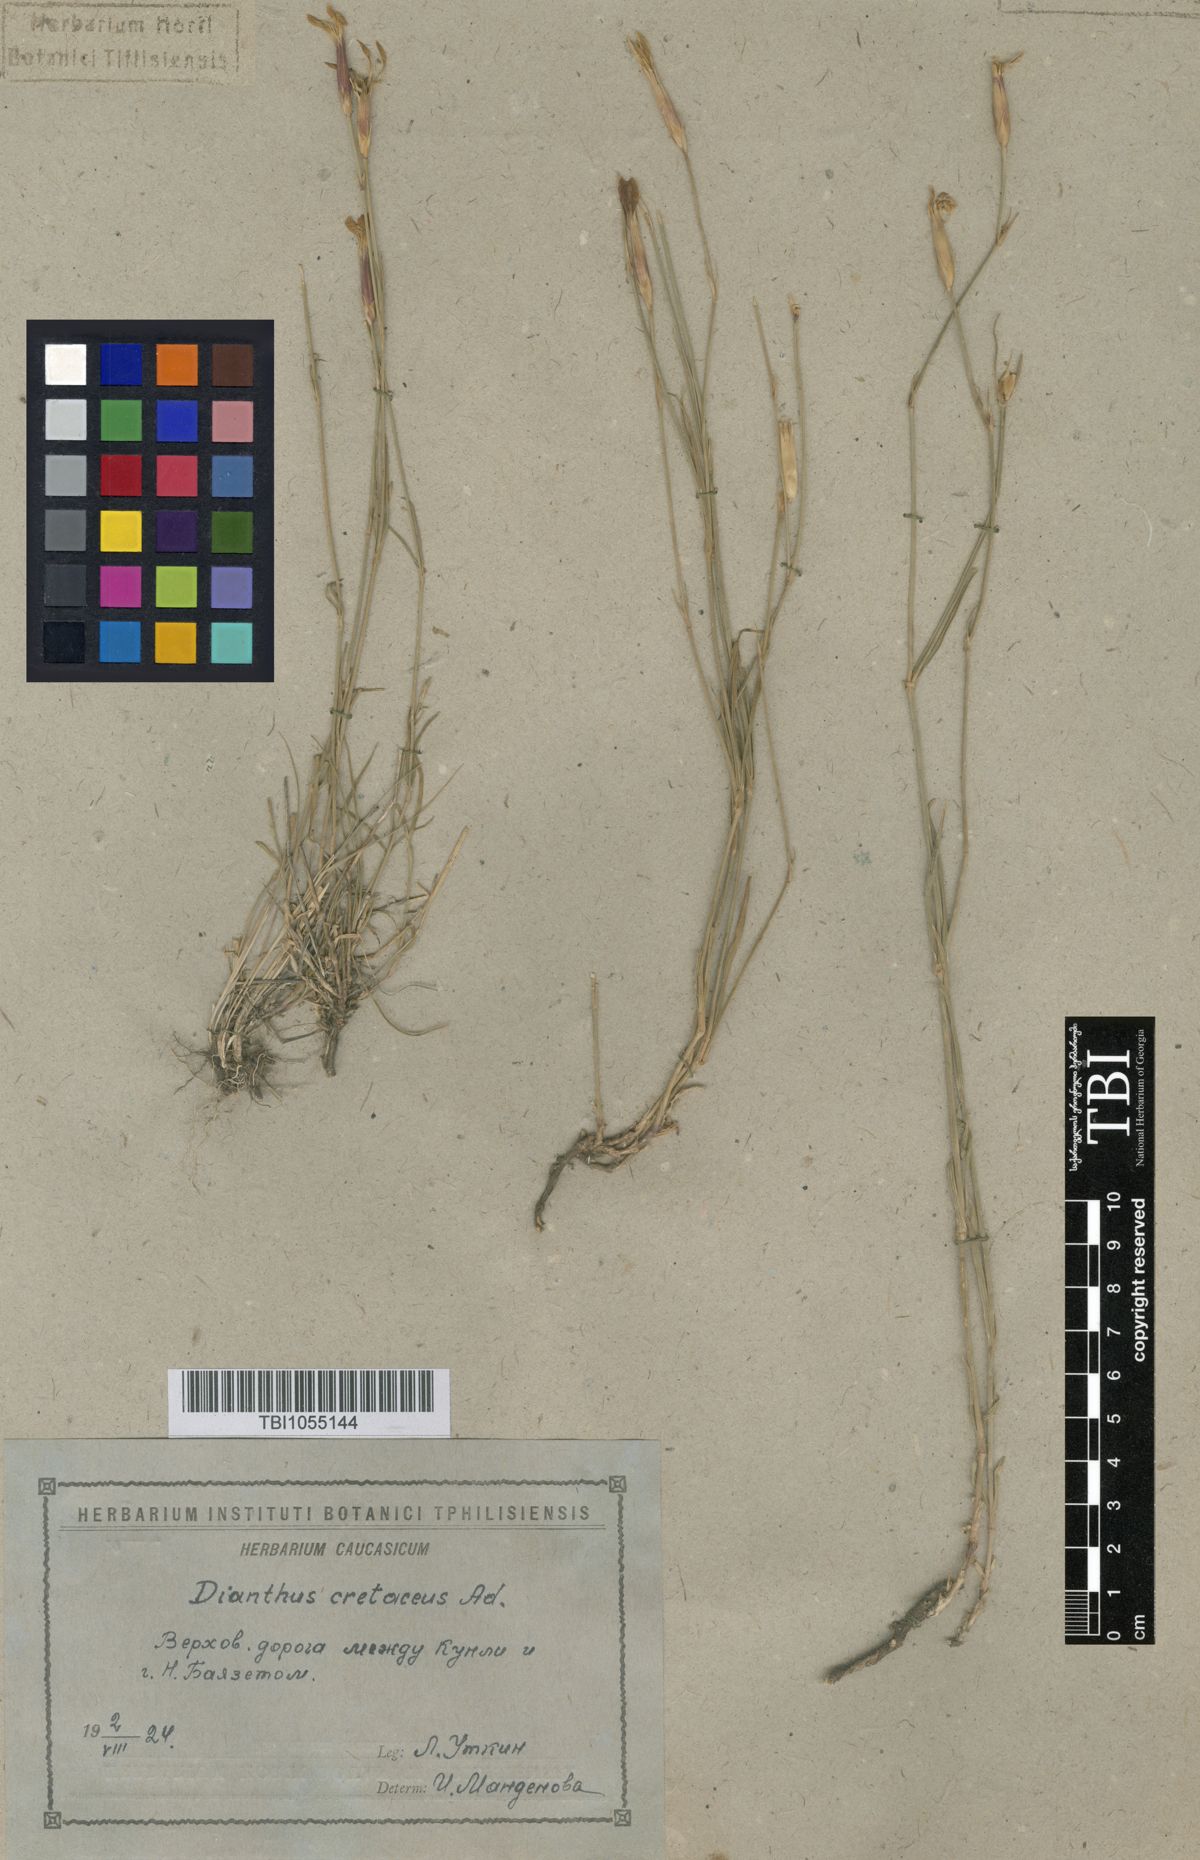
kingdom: Plantae
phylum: Tracheophyta
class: Magnoliopsida
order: Caryophyllales
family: Caryophyllaceae
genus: Dianthus
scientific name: Dianthus cretaceus
